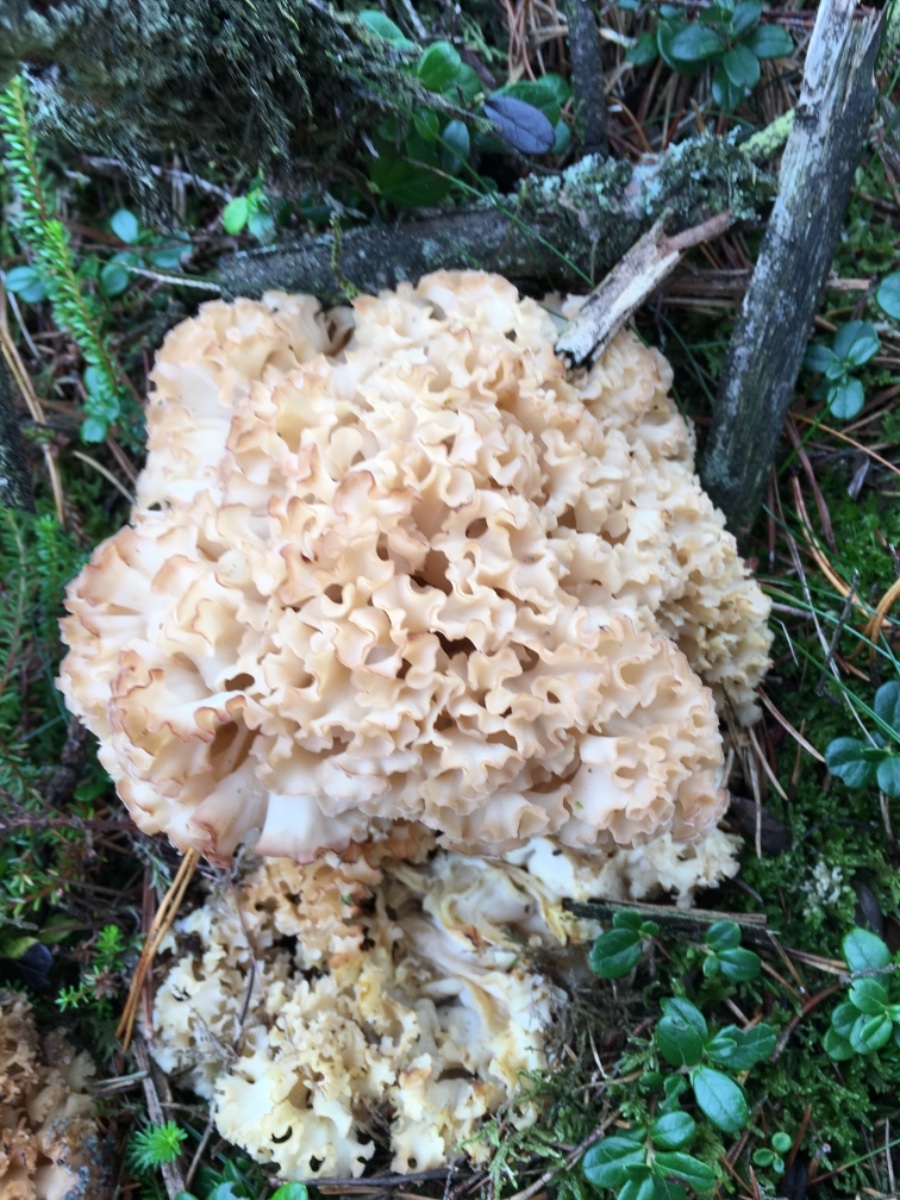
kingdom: Fungi
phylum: Basidiomycota
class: Agaricomycetes
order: Polyporales
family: Sparassidaceae
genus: Sparassis
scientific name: Sparassis crispa
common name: kruset blomkålssvamp
